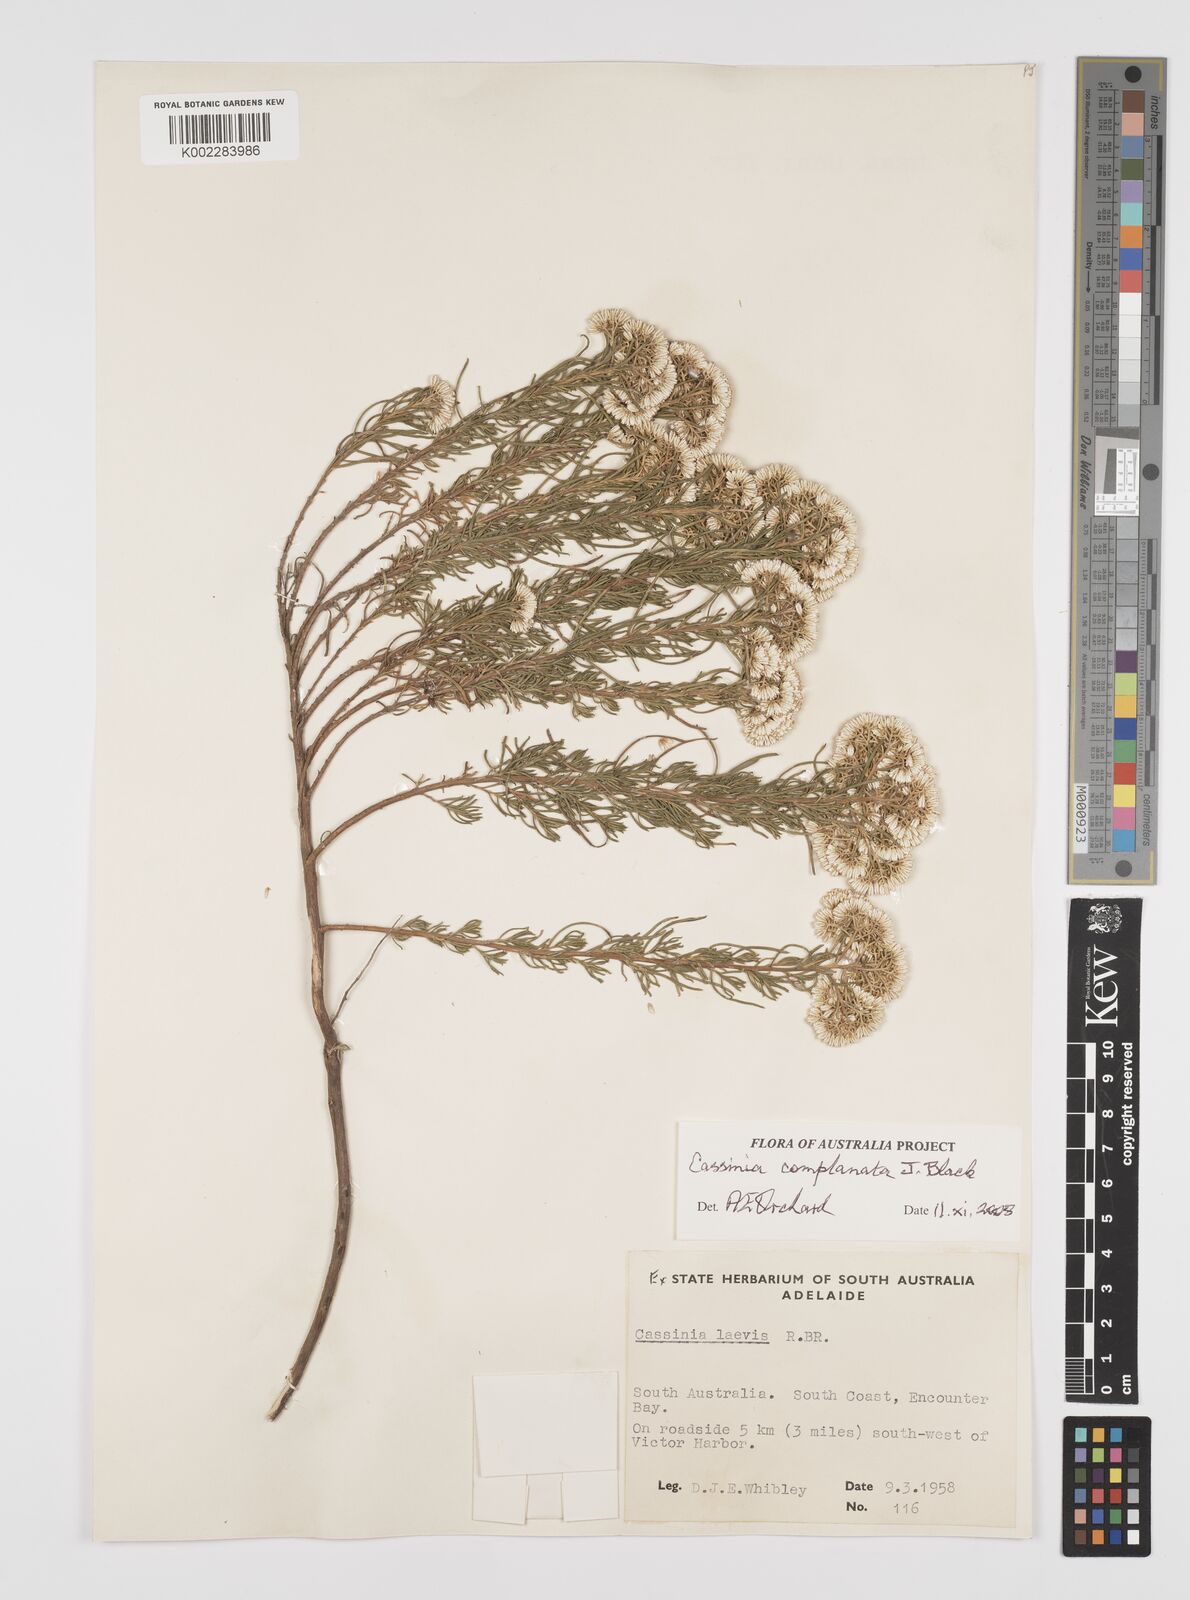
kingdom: Plantae
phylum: Tracheophyta
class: Magnoliopsida
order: Asterales
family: Asteraceae
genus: Cassinia
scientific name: Cassinia complanata
